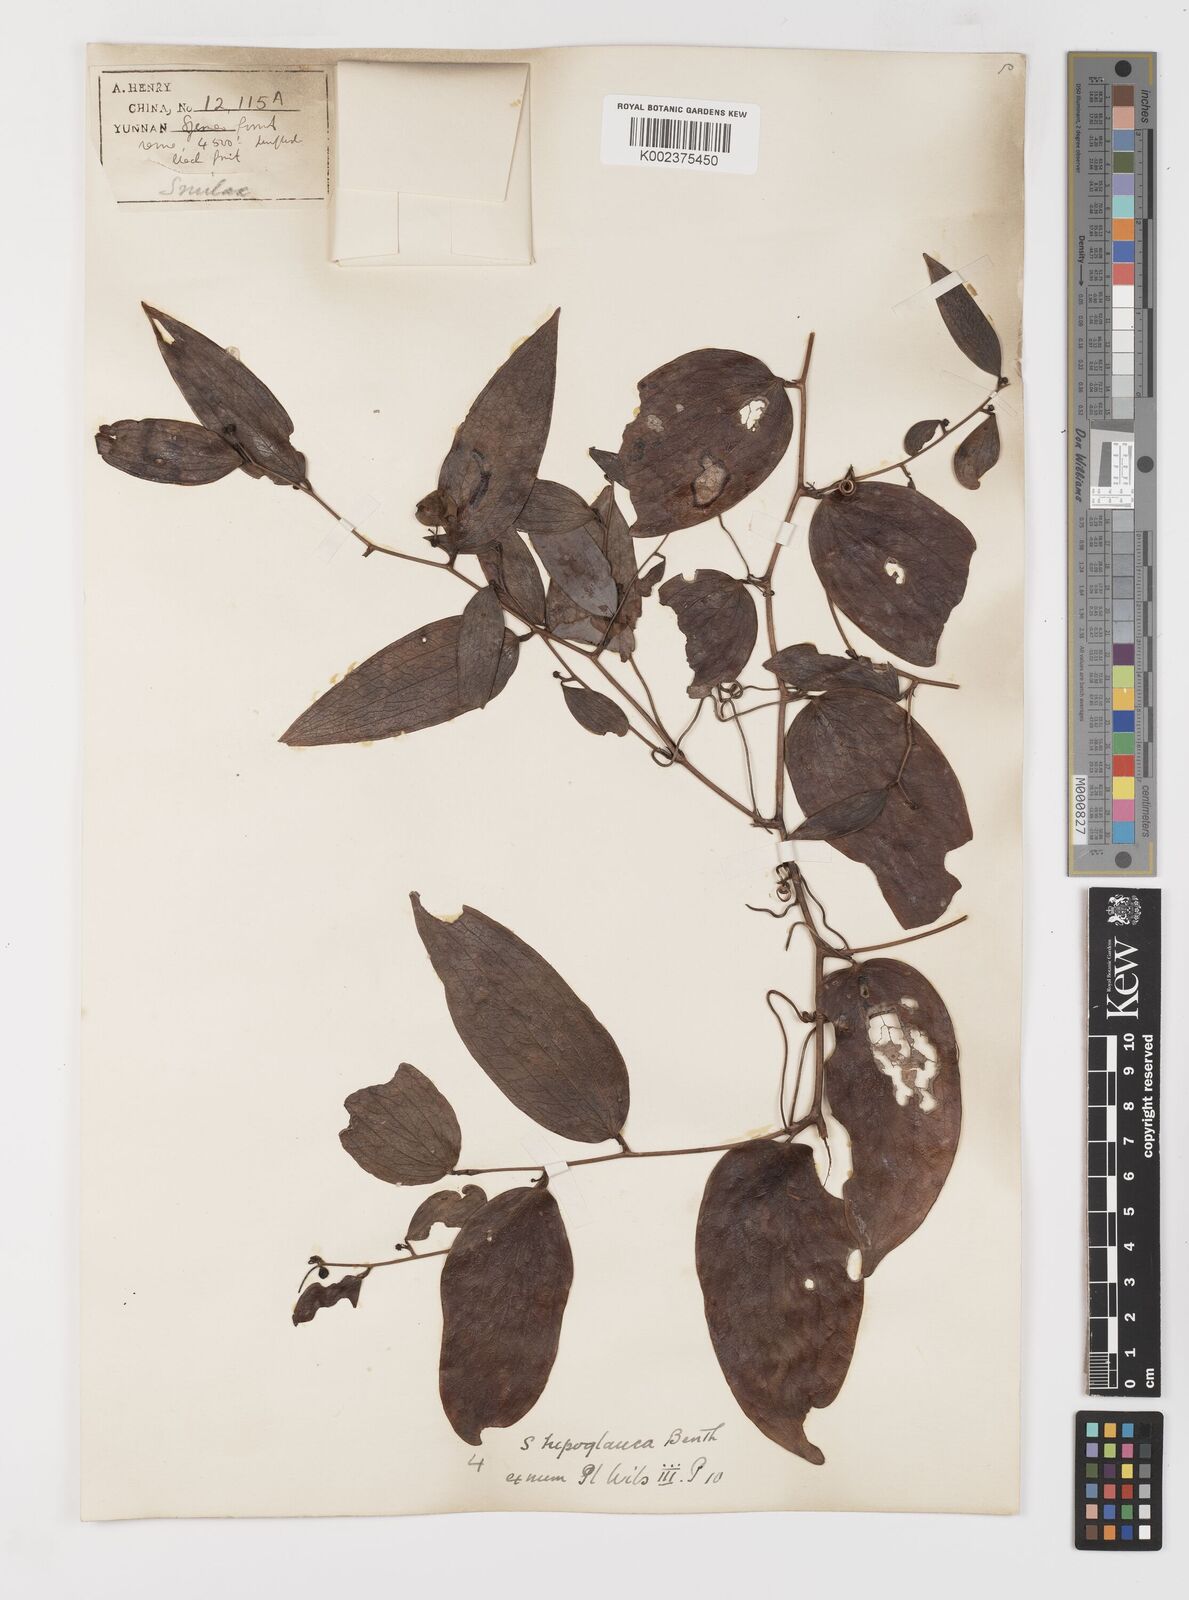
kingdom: Plantae
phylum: Tracheophyta
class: Liliopsida
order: Liliales
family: Smilacaceae
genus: Smilax
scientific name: Smilax hypoglauca
